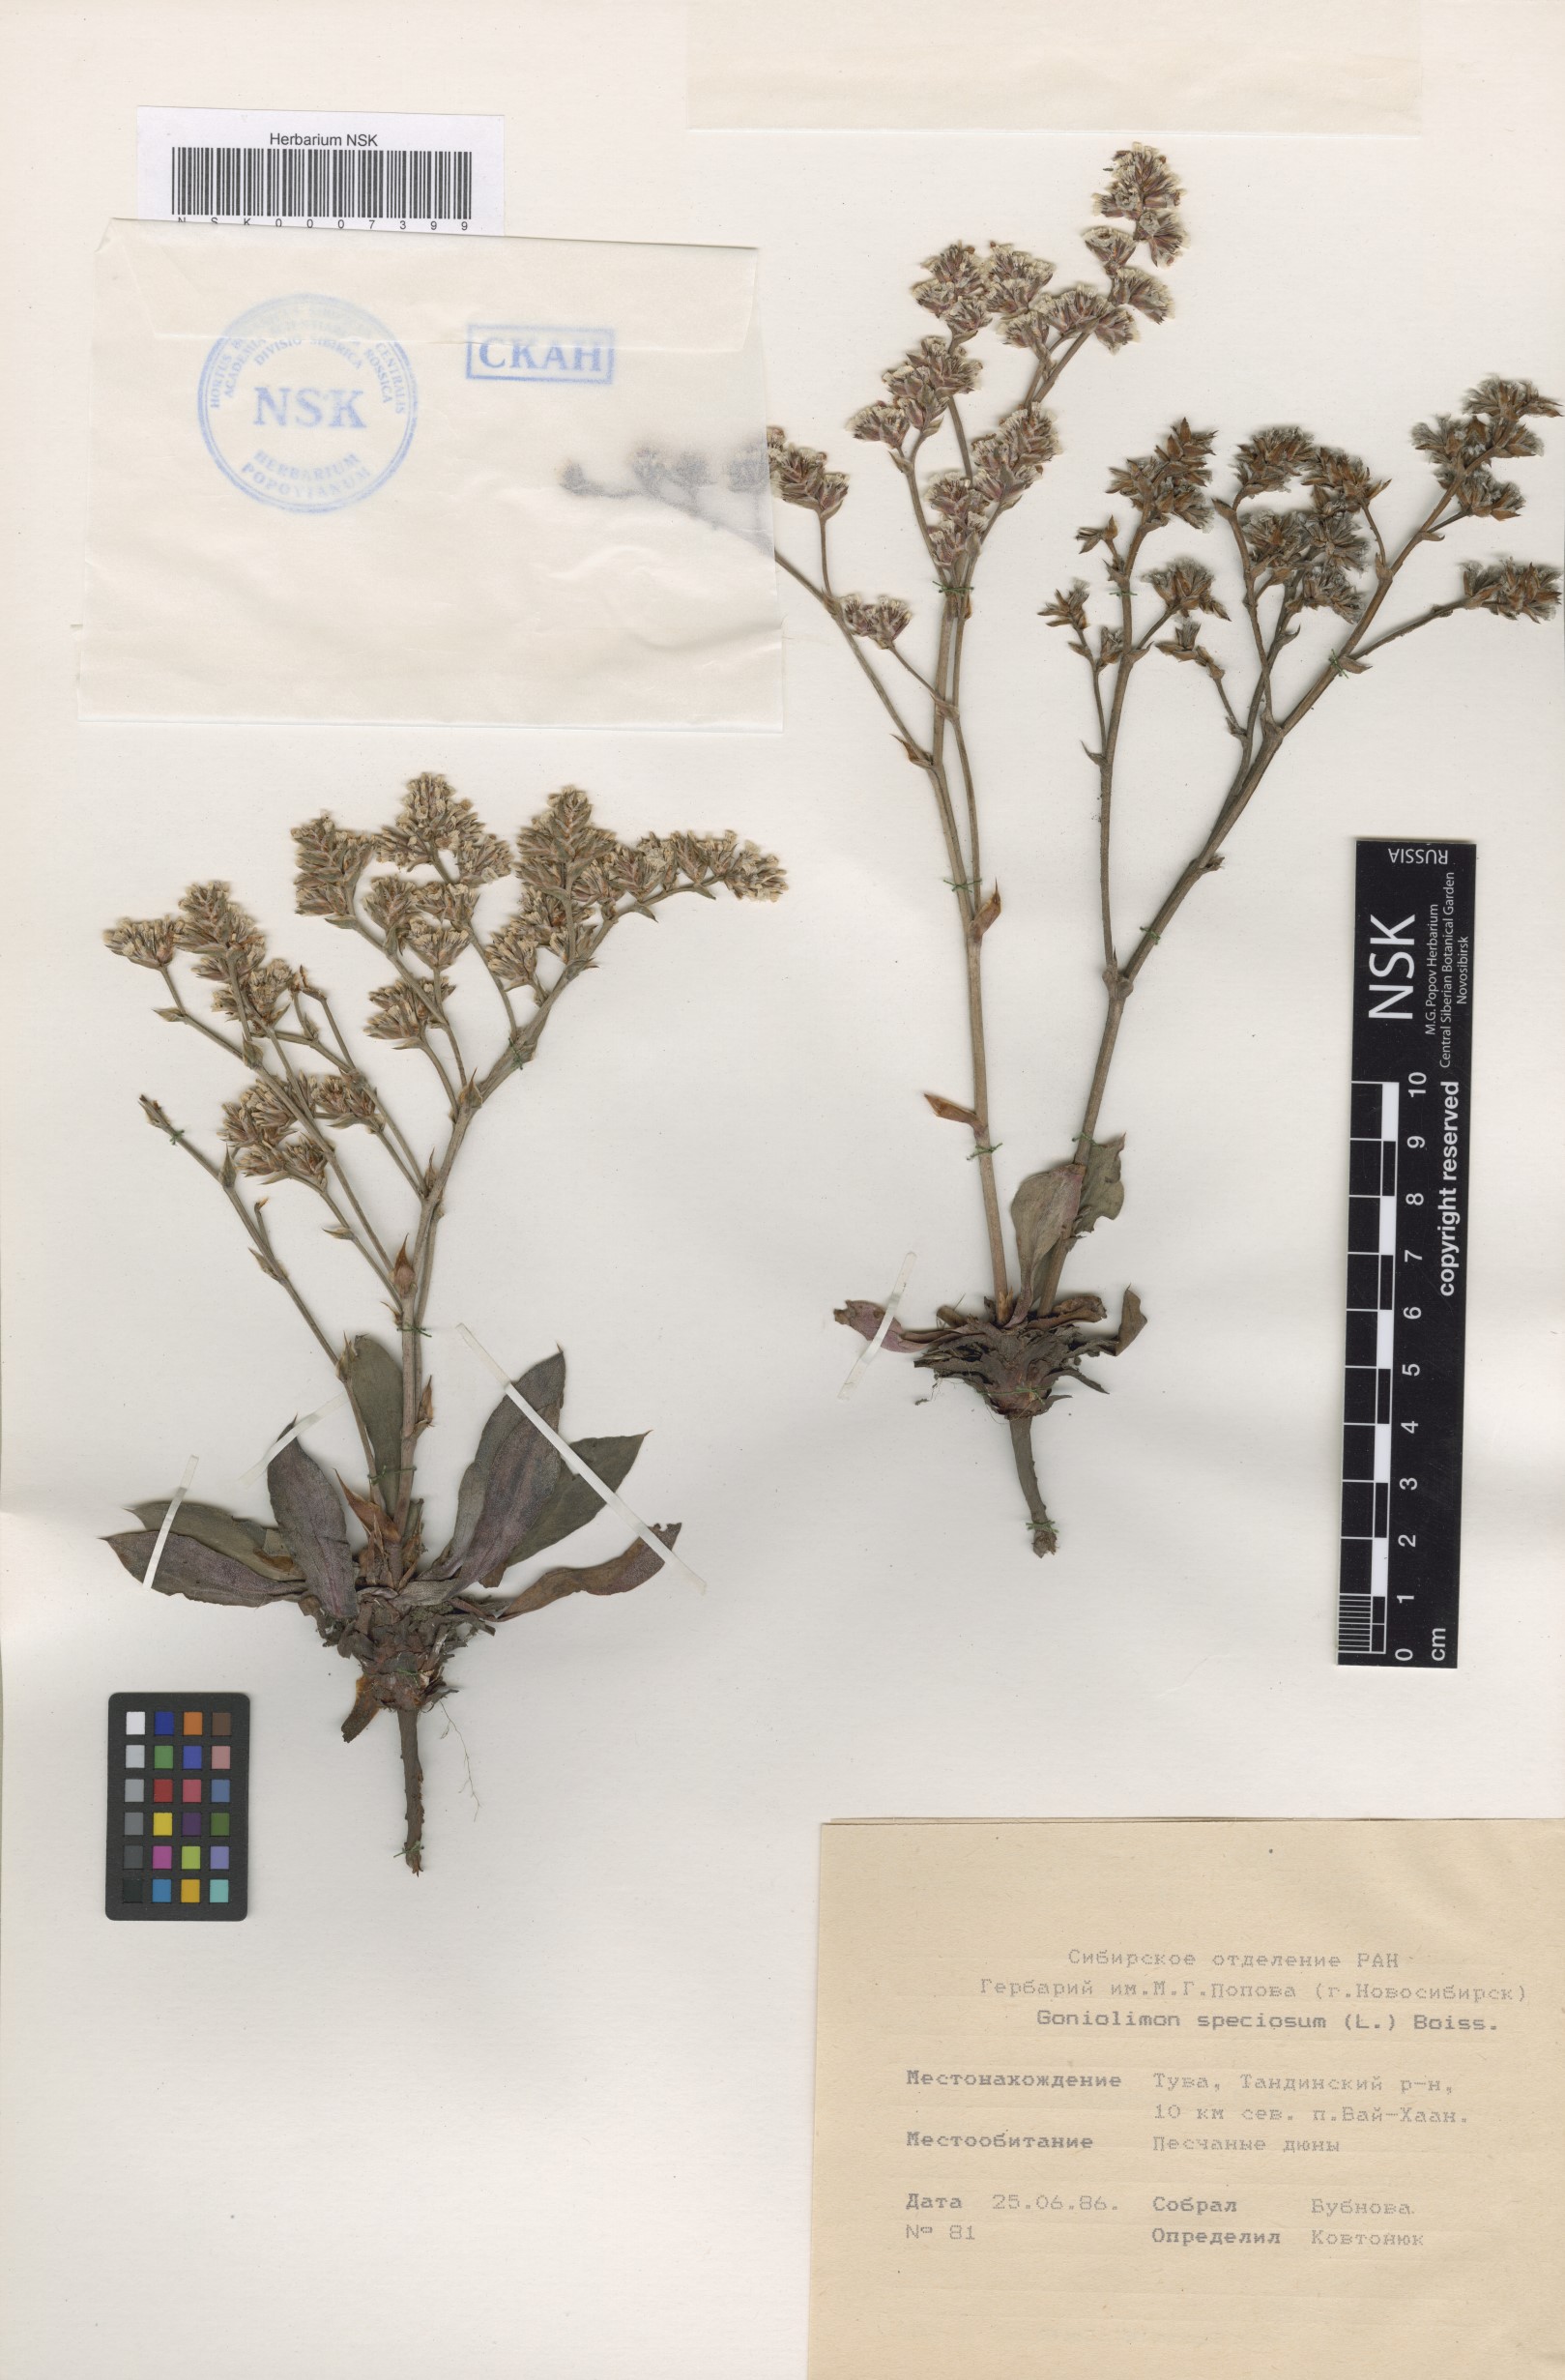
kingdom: Plantae
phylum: Tracheophyta
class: Magnoliopsida
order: Caryophyllales
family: Plumbaginaceae
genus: Goniolimon
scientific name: Goniolimon speciosum
